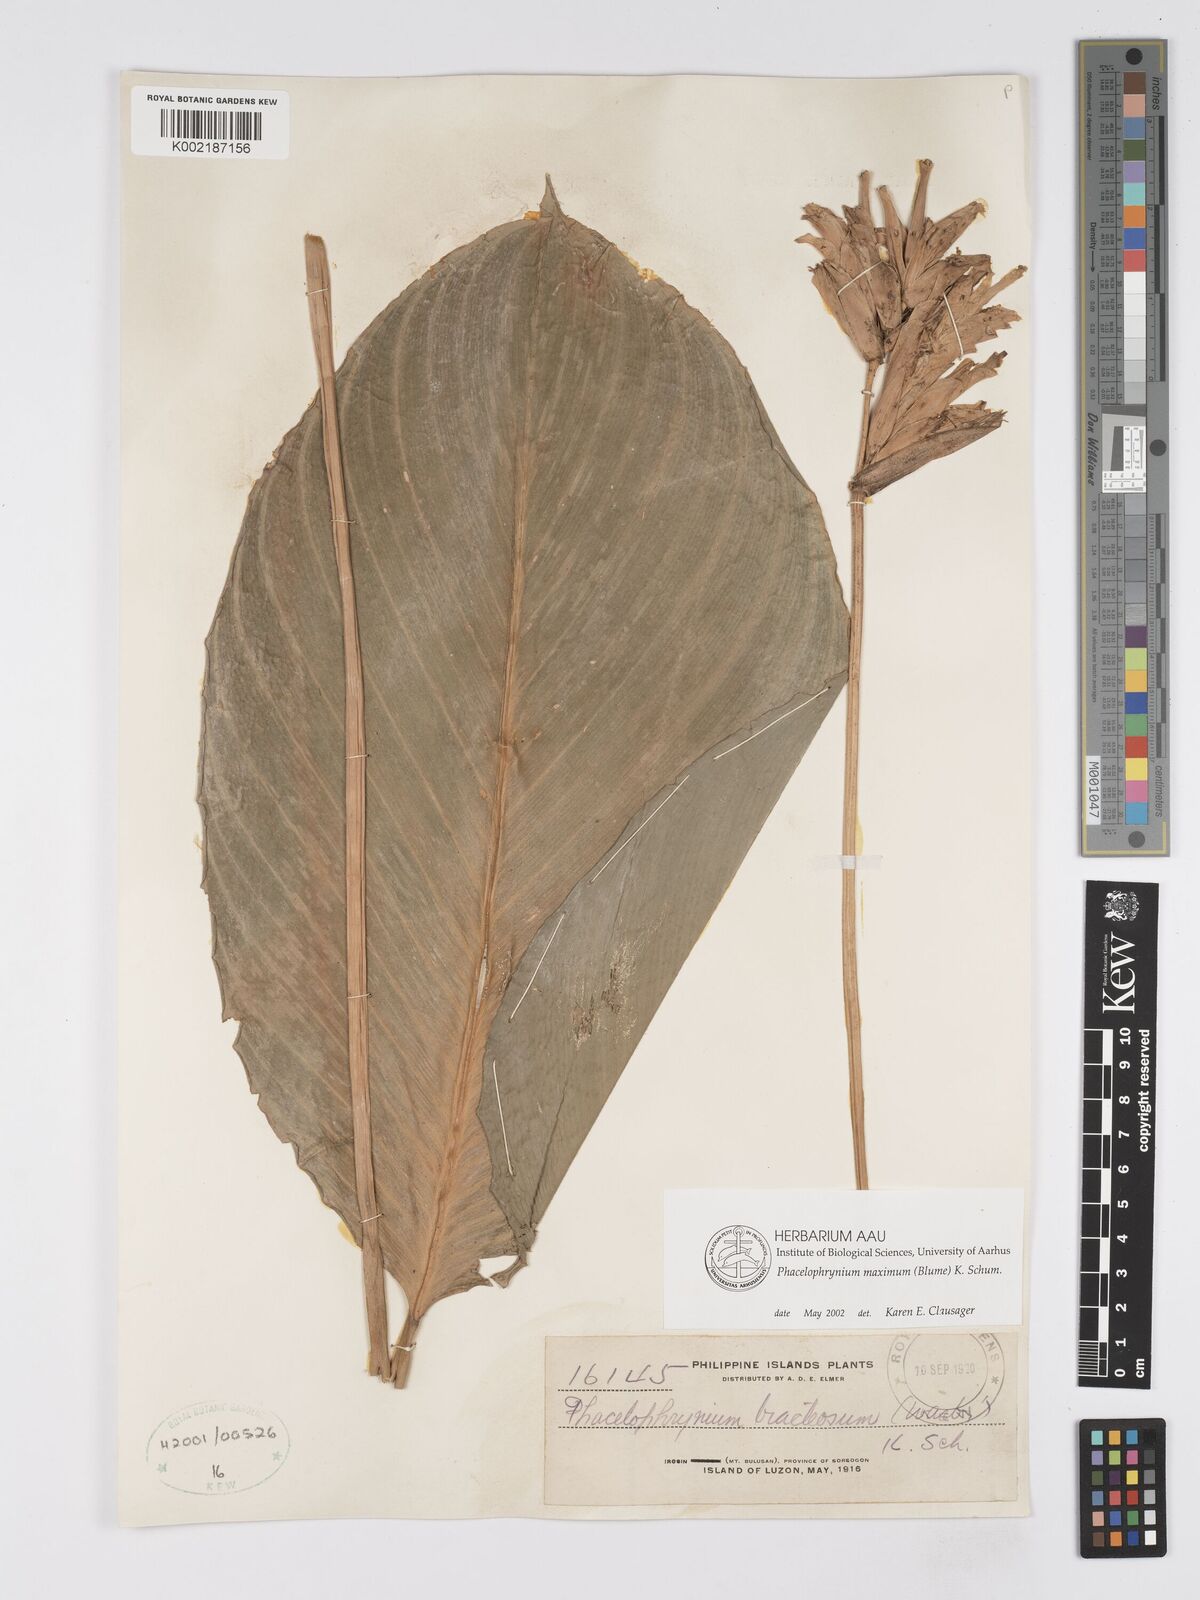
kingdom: Plantae
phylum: Tracheophyta
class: Liliopsida
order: Zingiberales
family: Marantaceae
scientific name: Marantaceae
